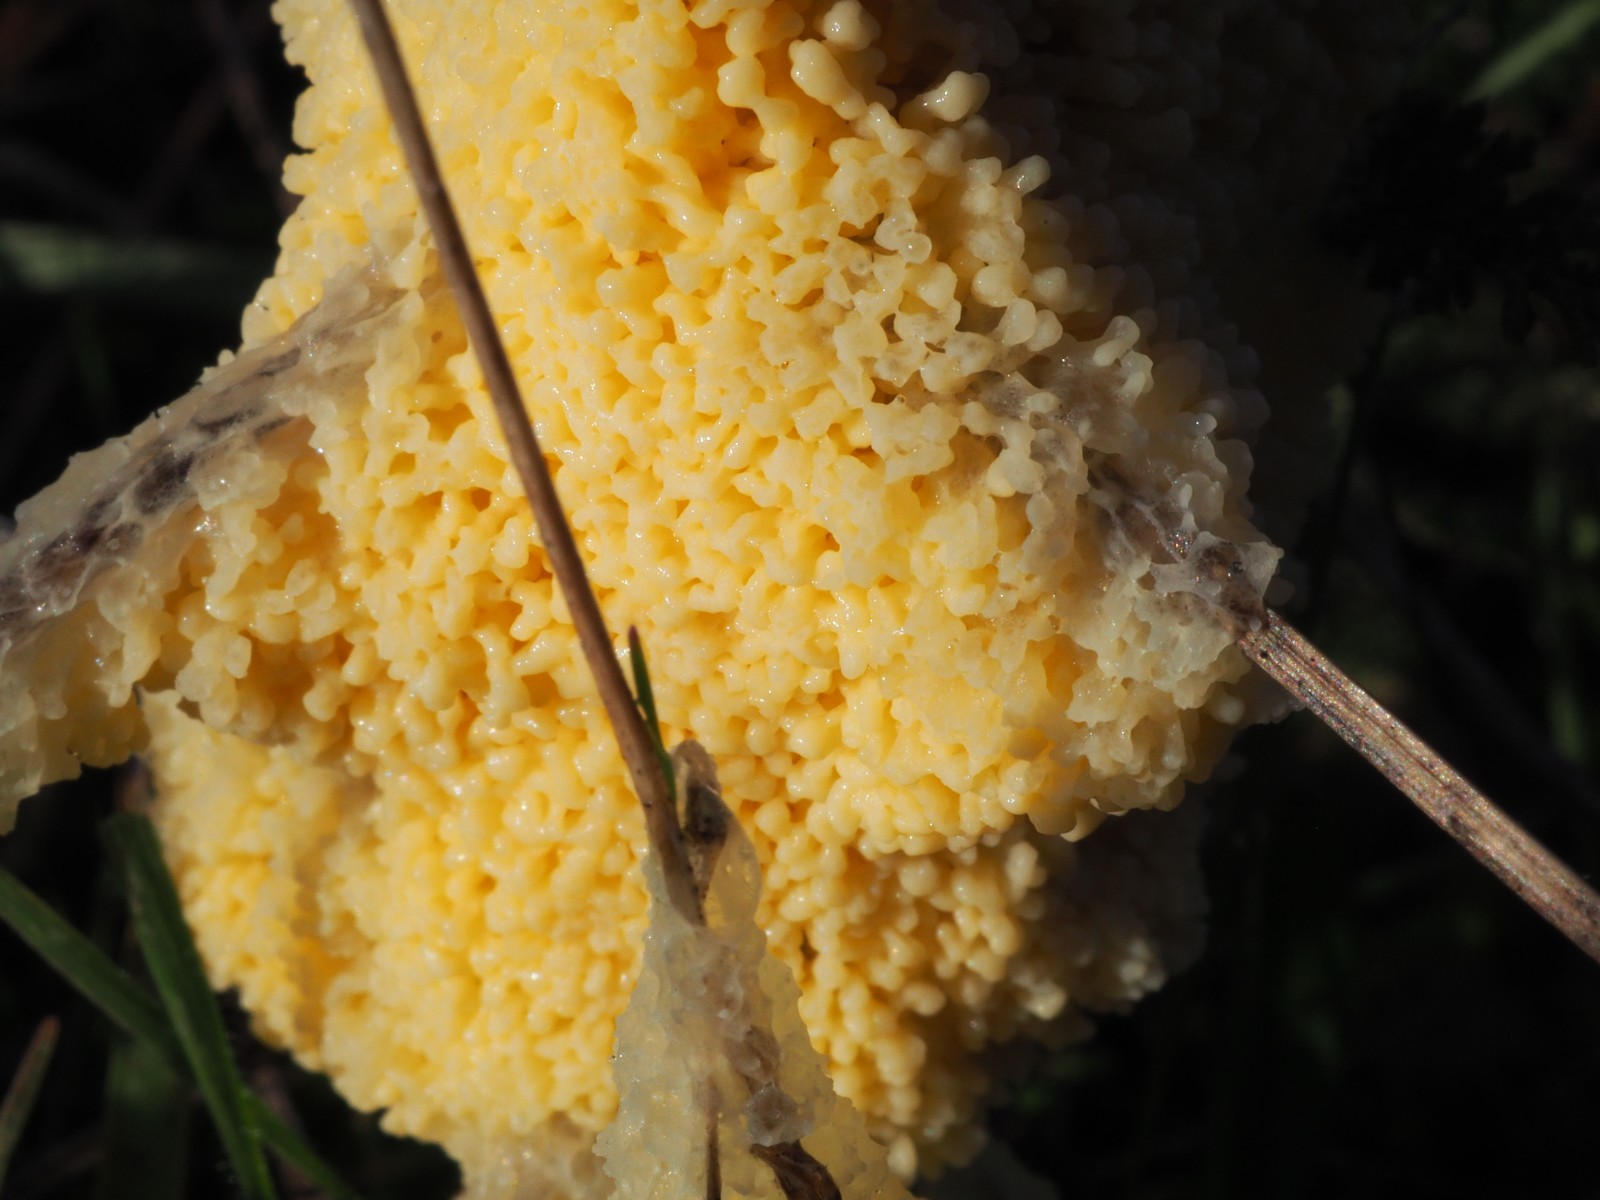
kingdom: Protozoa
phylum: Mycetozoa
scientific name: Mycetozoa
